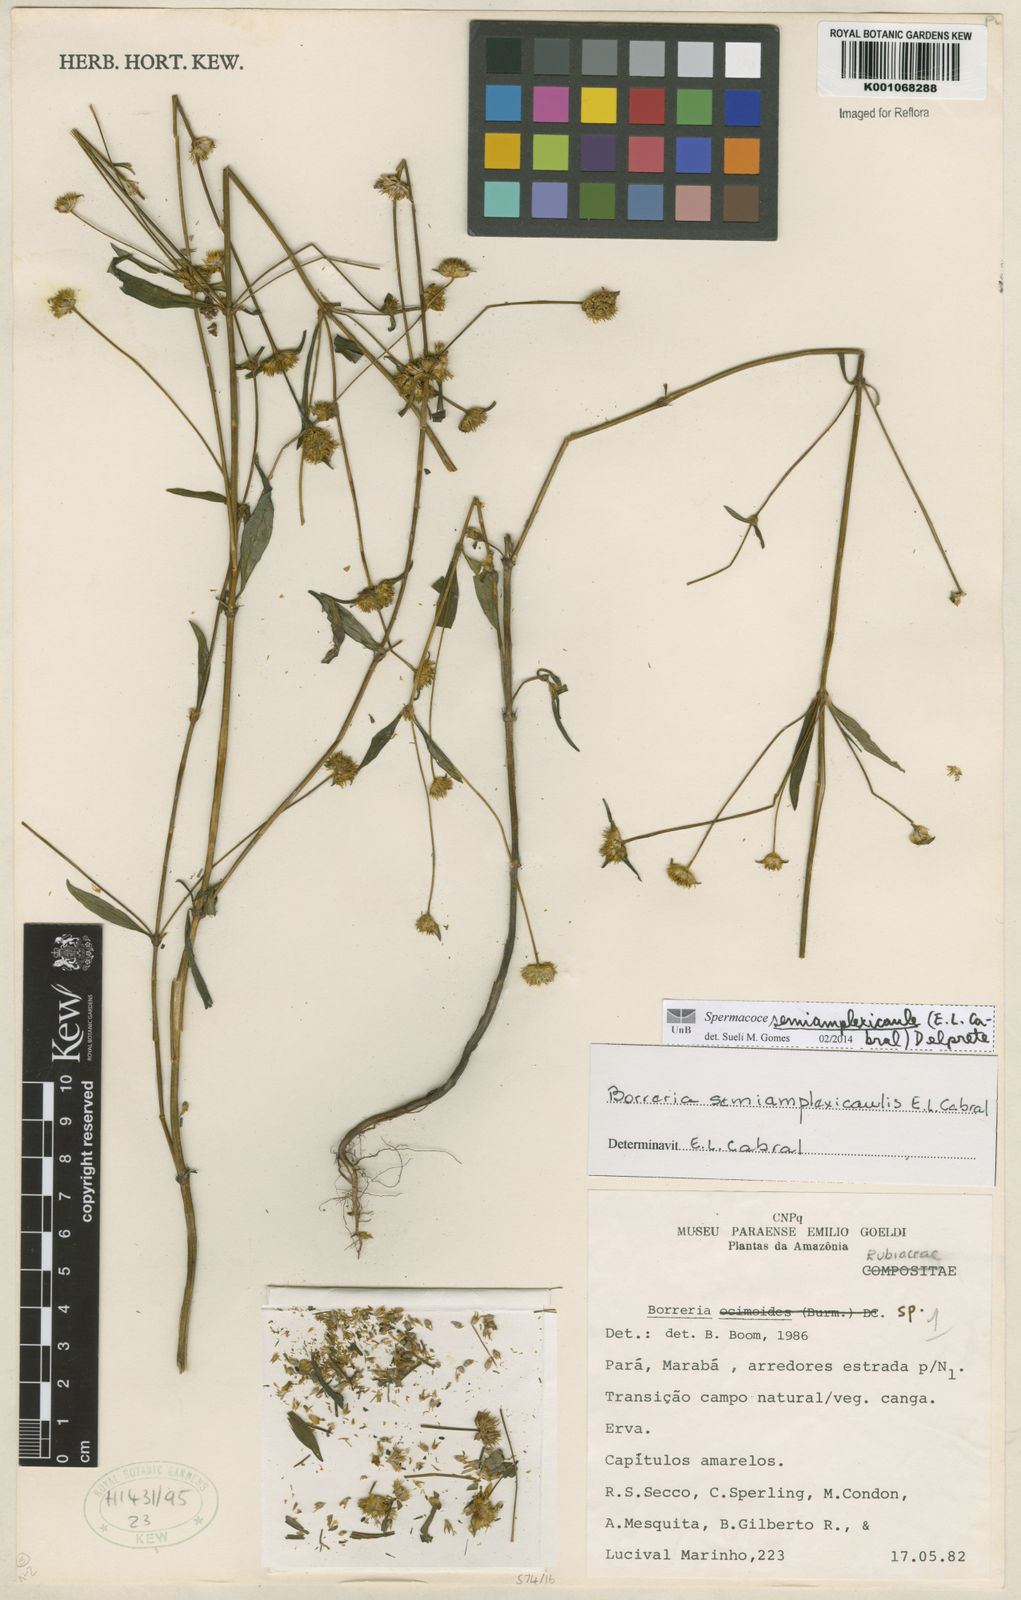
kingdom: Plantae
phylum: Tracheophyta
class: Magnoliopsida
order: Gentianales
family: Rubiaceae
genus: Spermacoce
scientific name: Spermacoce semiamplexicaulis
